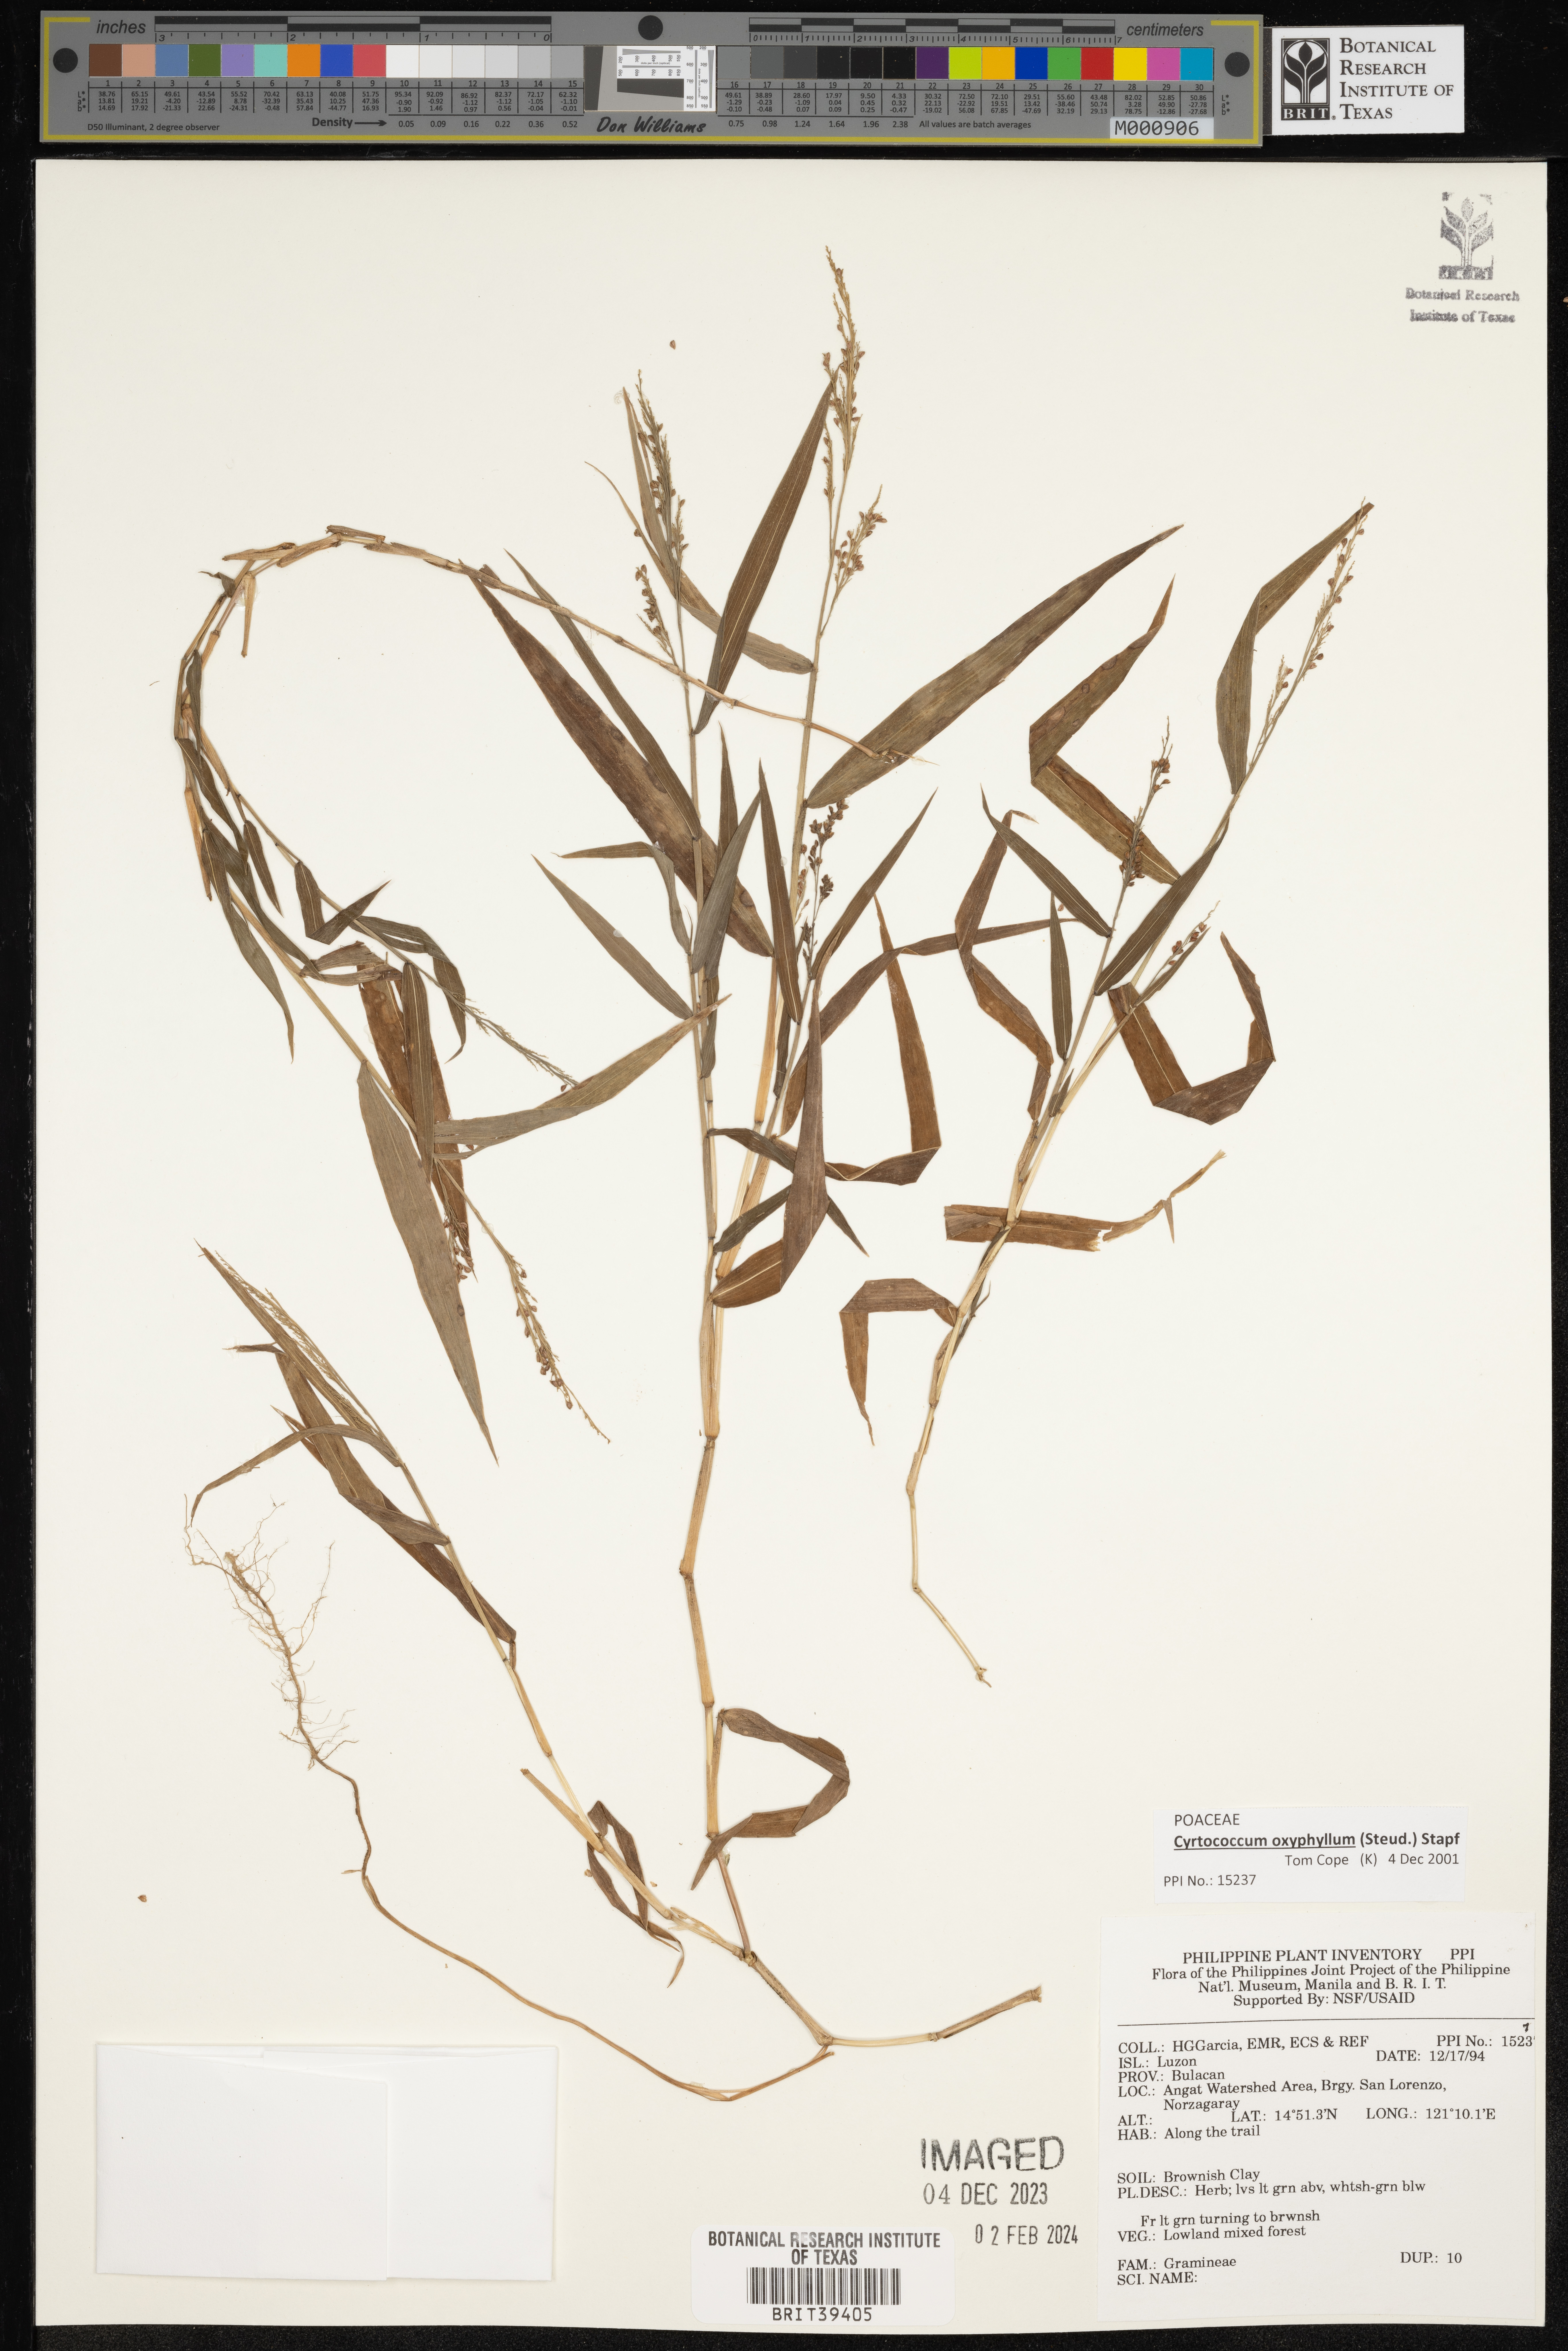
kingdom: Plantae
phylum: Tracheophyta
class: Liliopsida
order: Poales
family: Poaceae
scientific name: Poaceae
